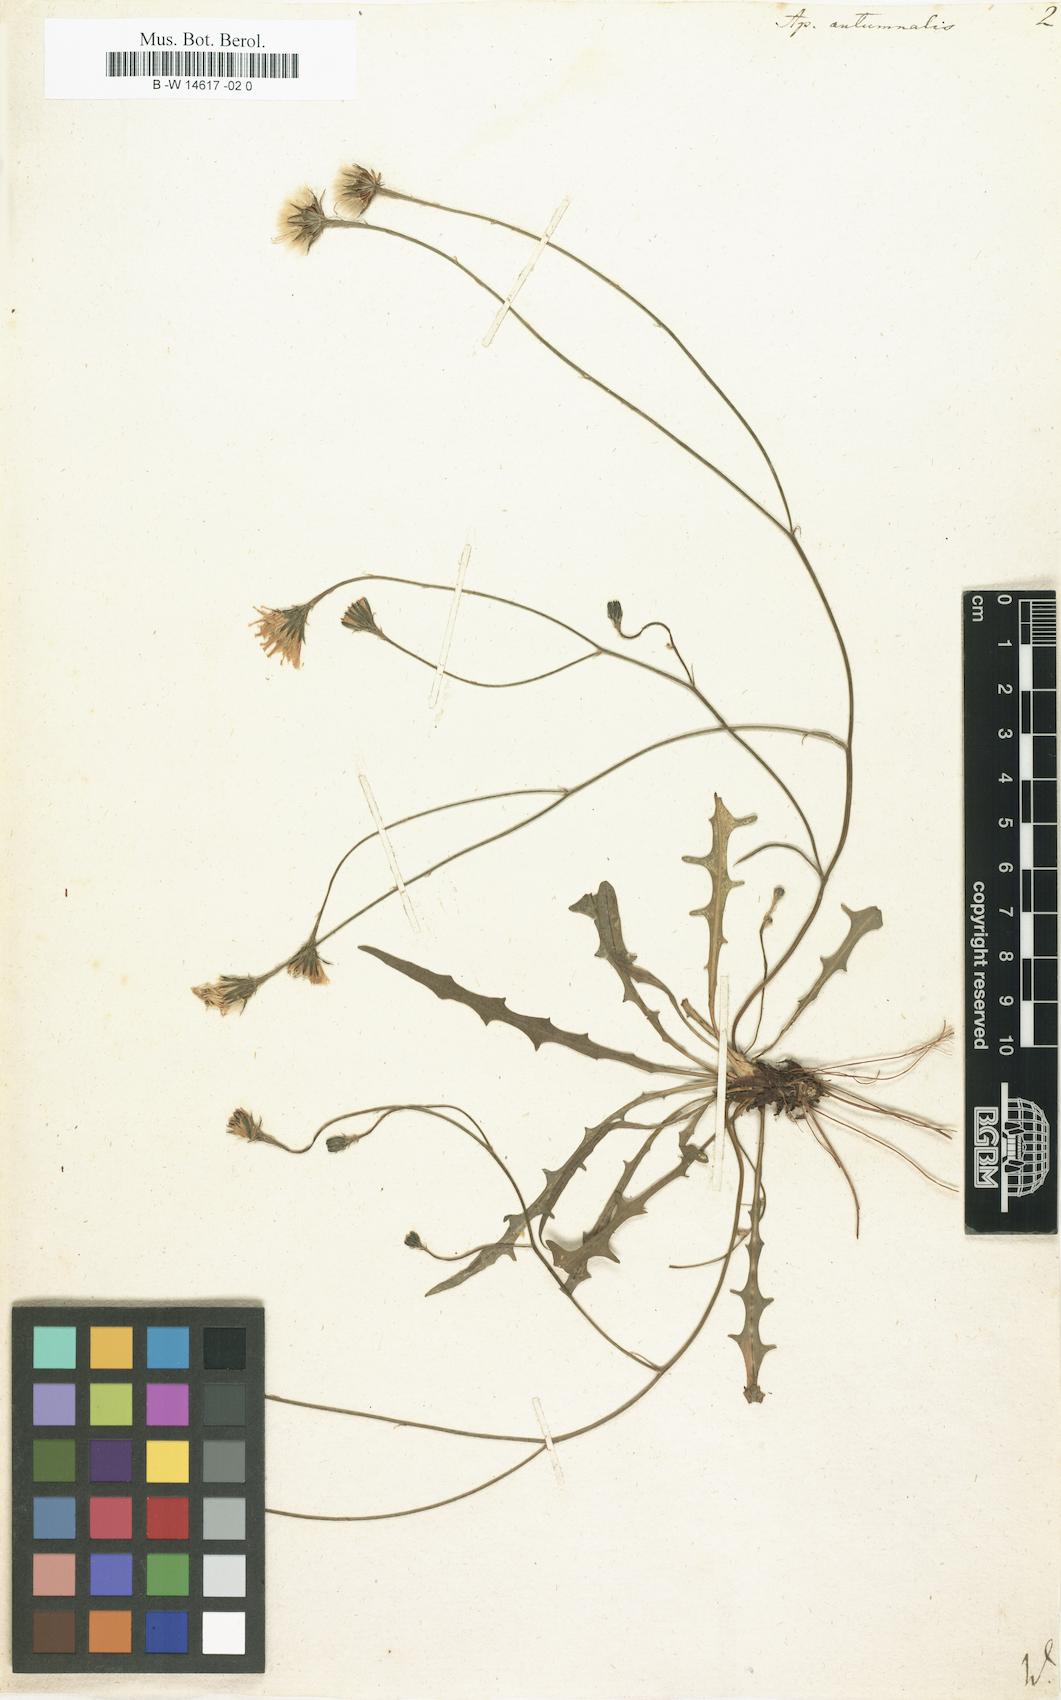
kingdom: Plantae
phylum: Tracheophyta
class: Magnoliopsida
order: Asterales
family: Asteraceae
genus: Scorzoneroides
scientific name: Scorzoneroides autumnalis
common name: Autumn hawkbit
